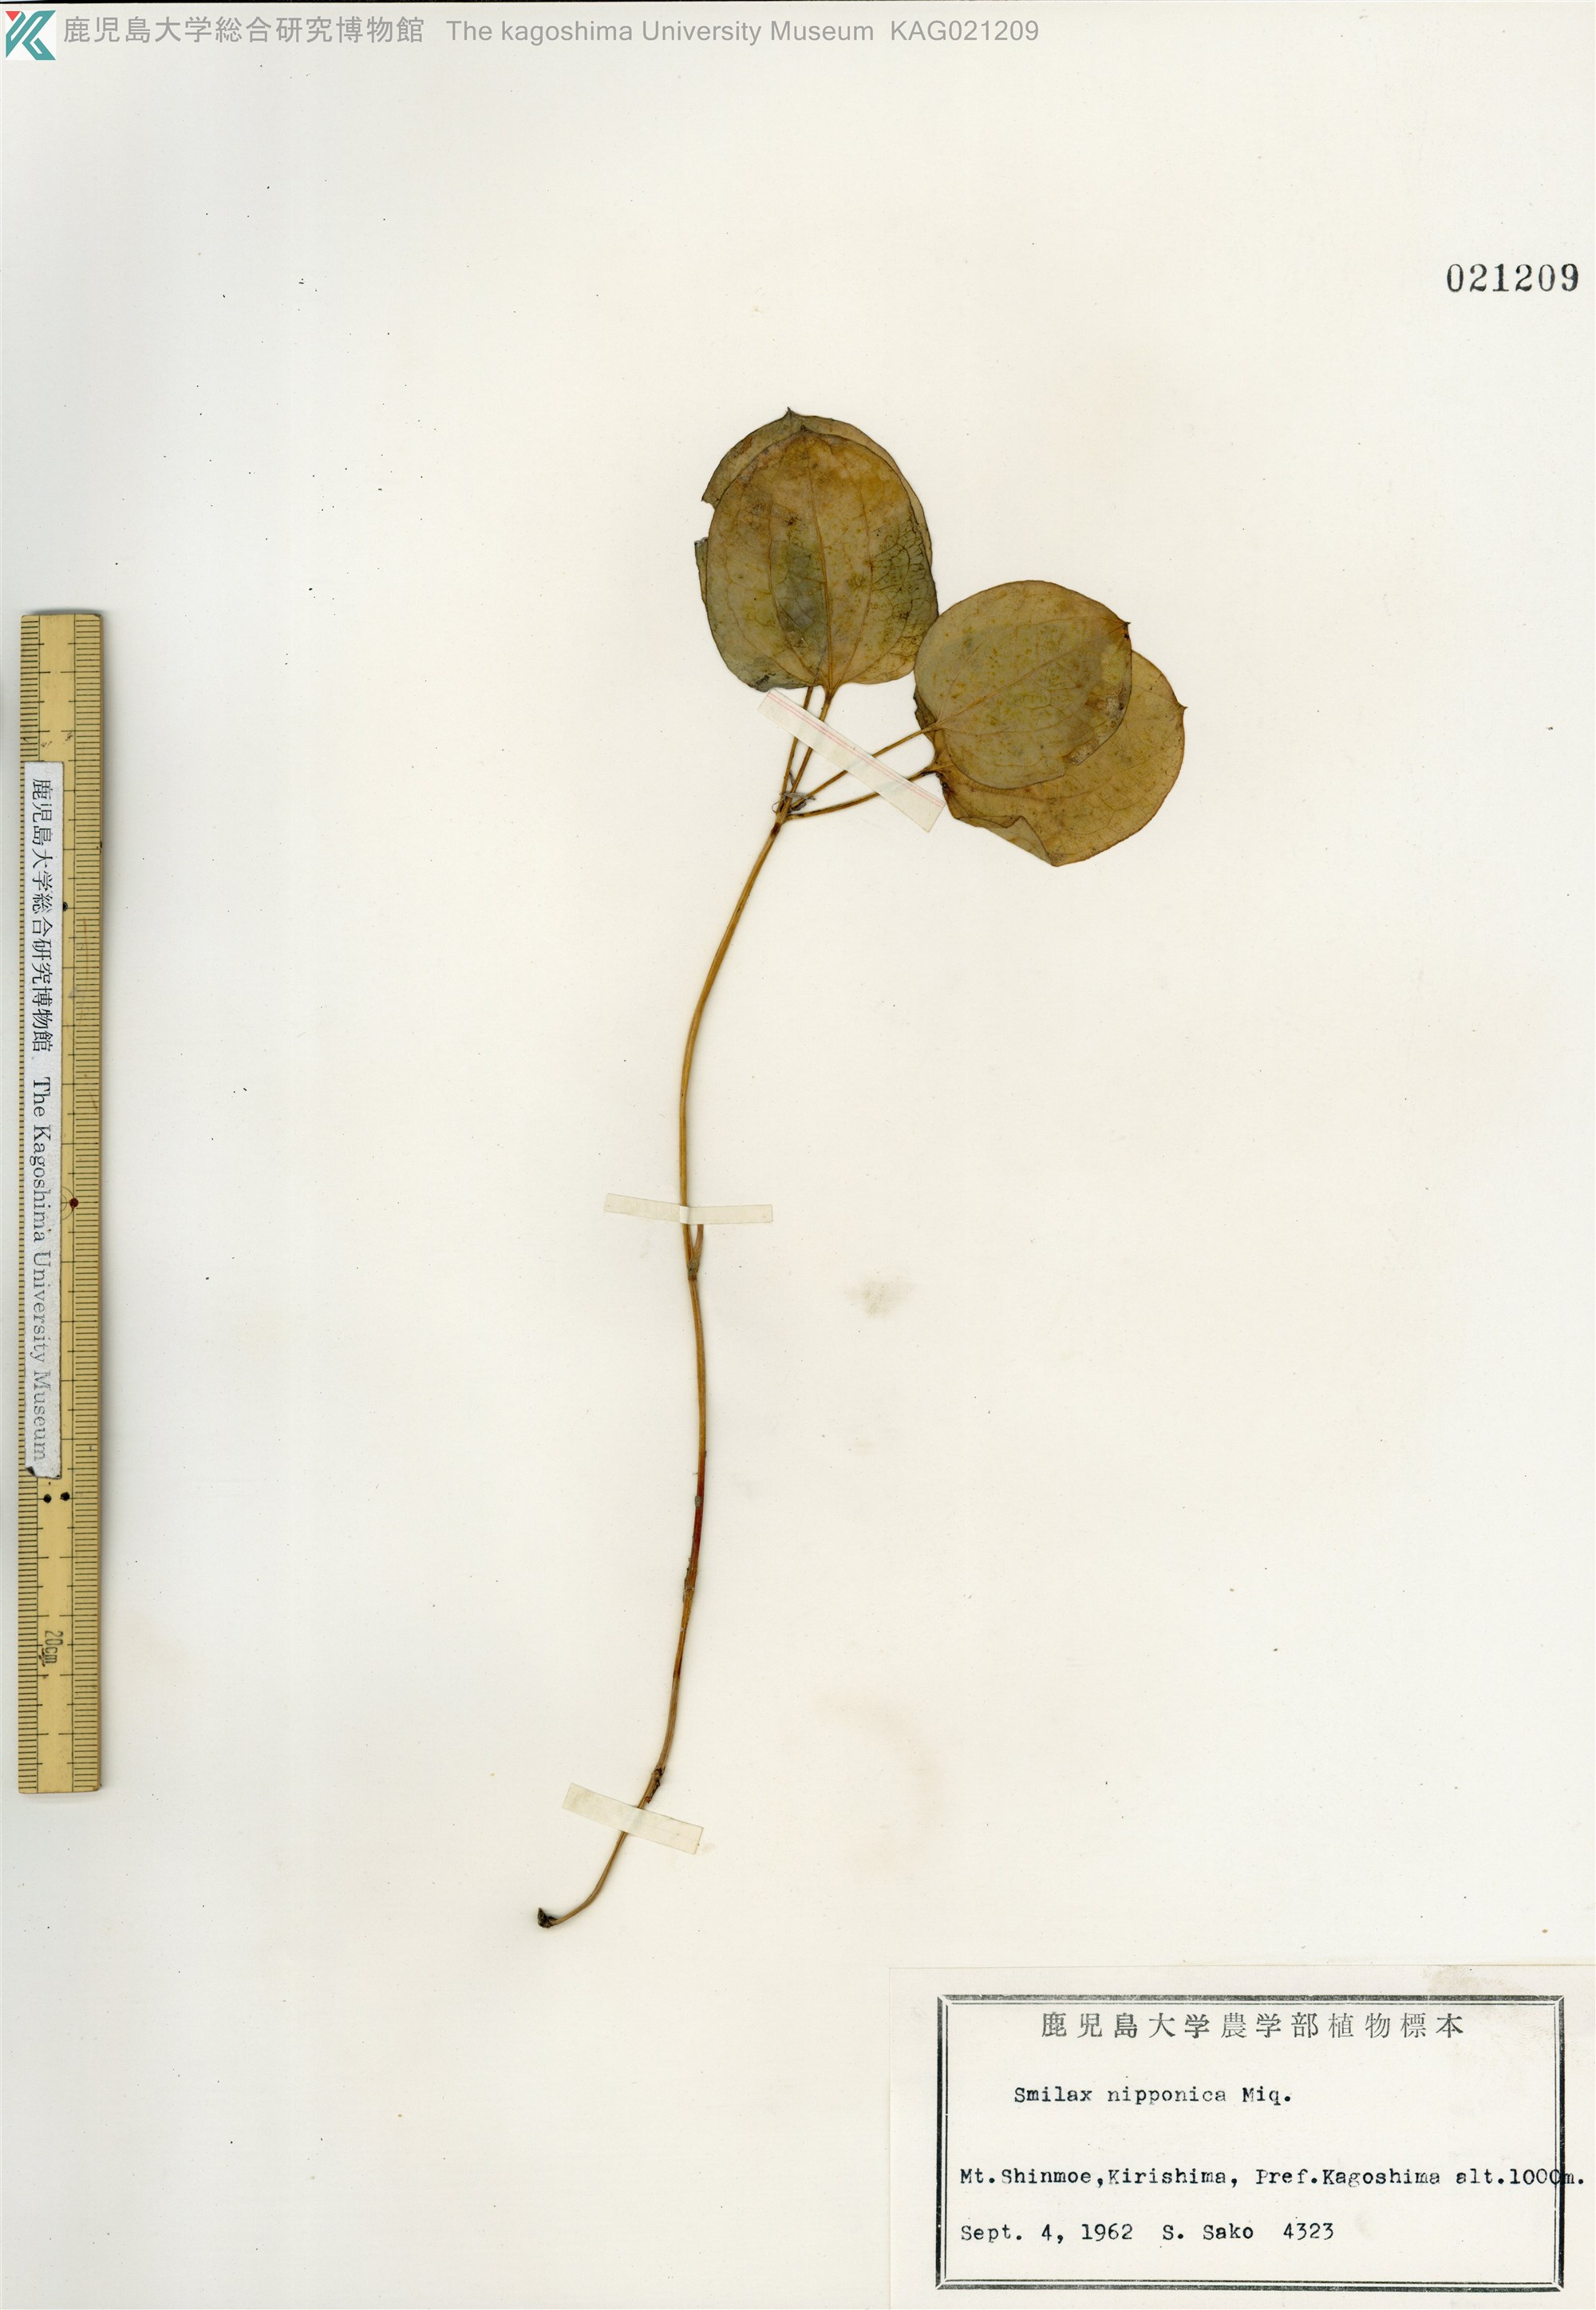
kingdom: Plantae
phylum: Tracheophyta
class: Liliopsida
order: Liliales
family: Smilacaceae
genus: Smilax
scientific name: Smilax nipponica
